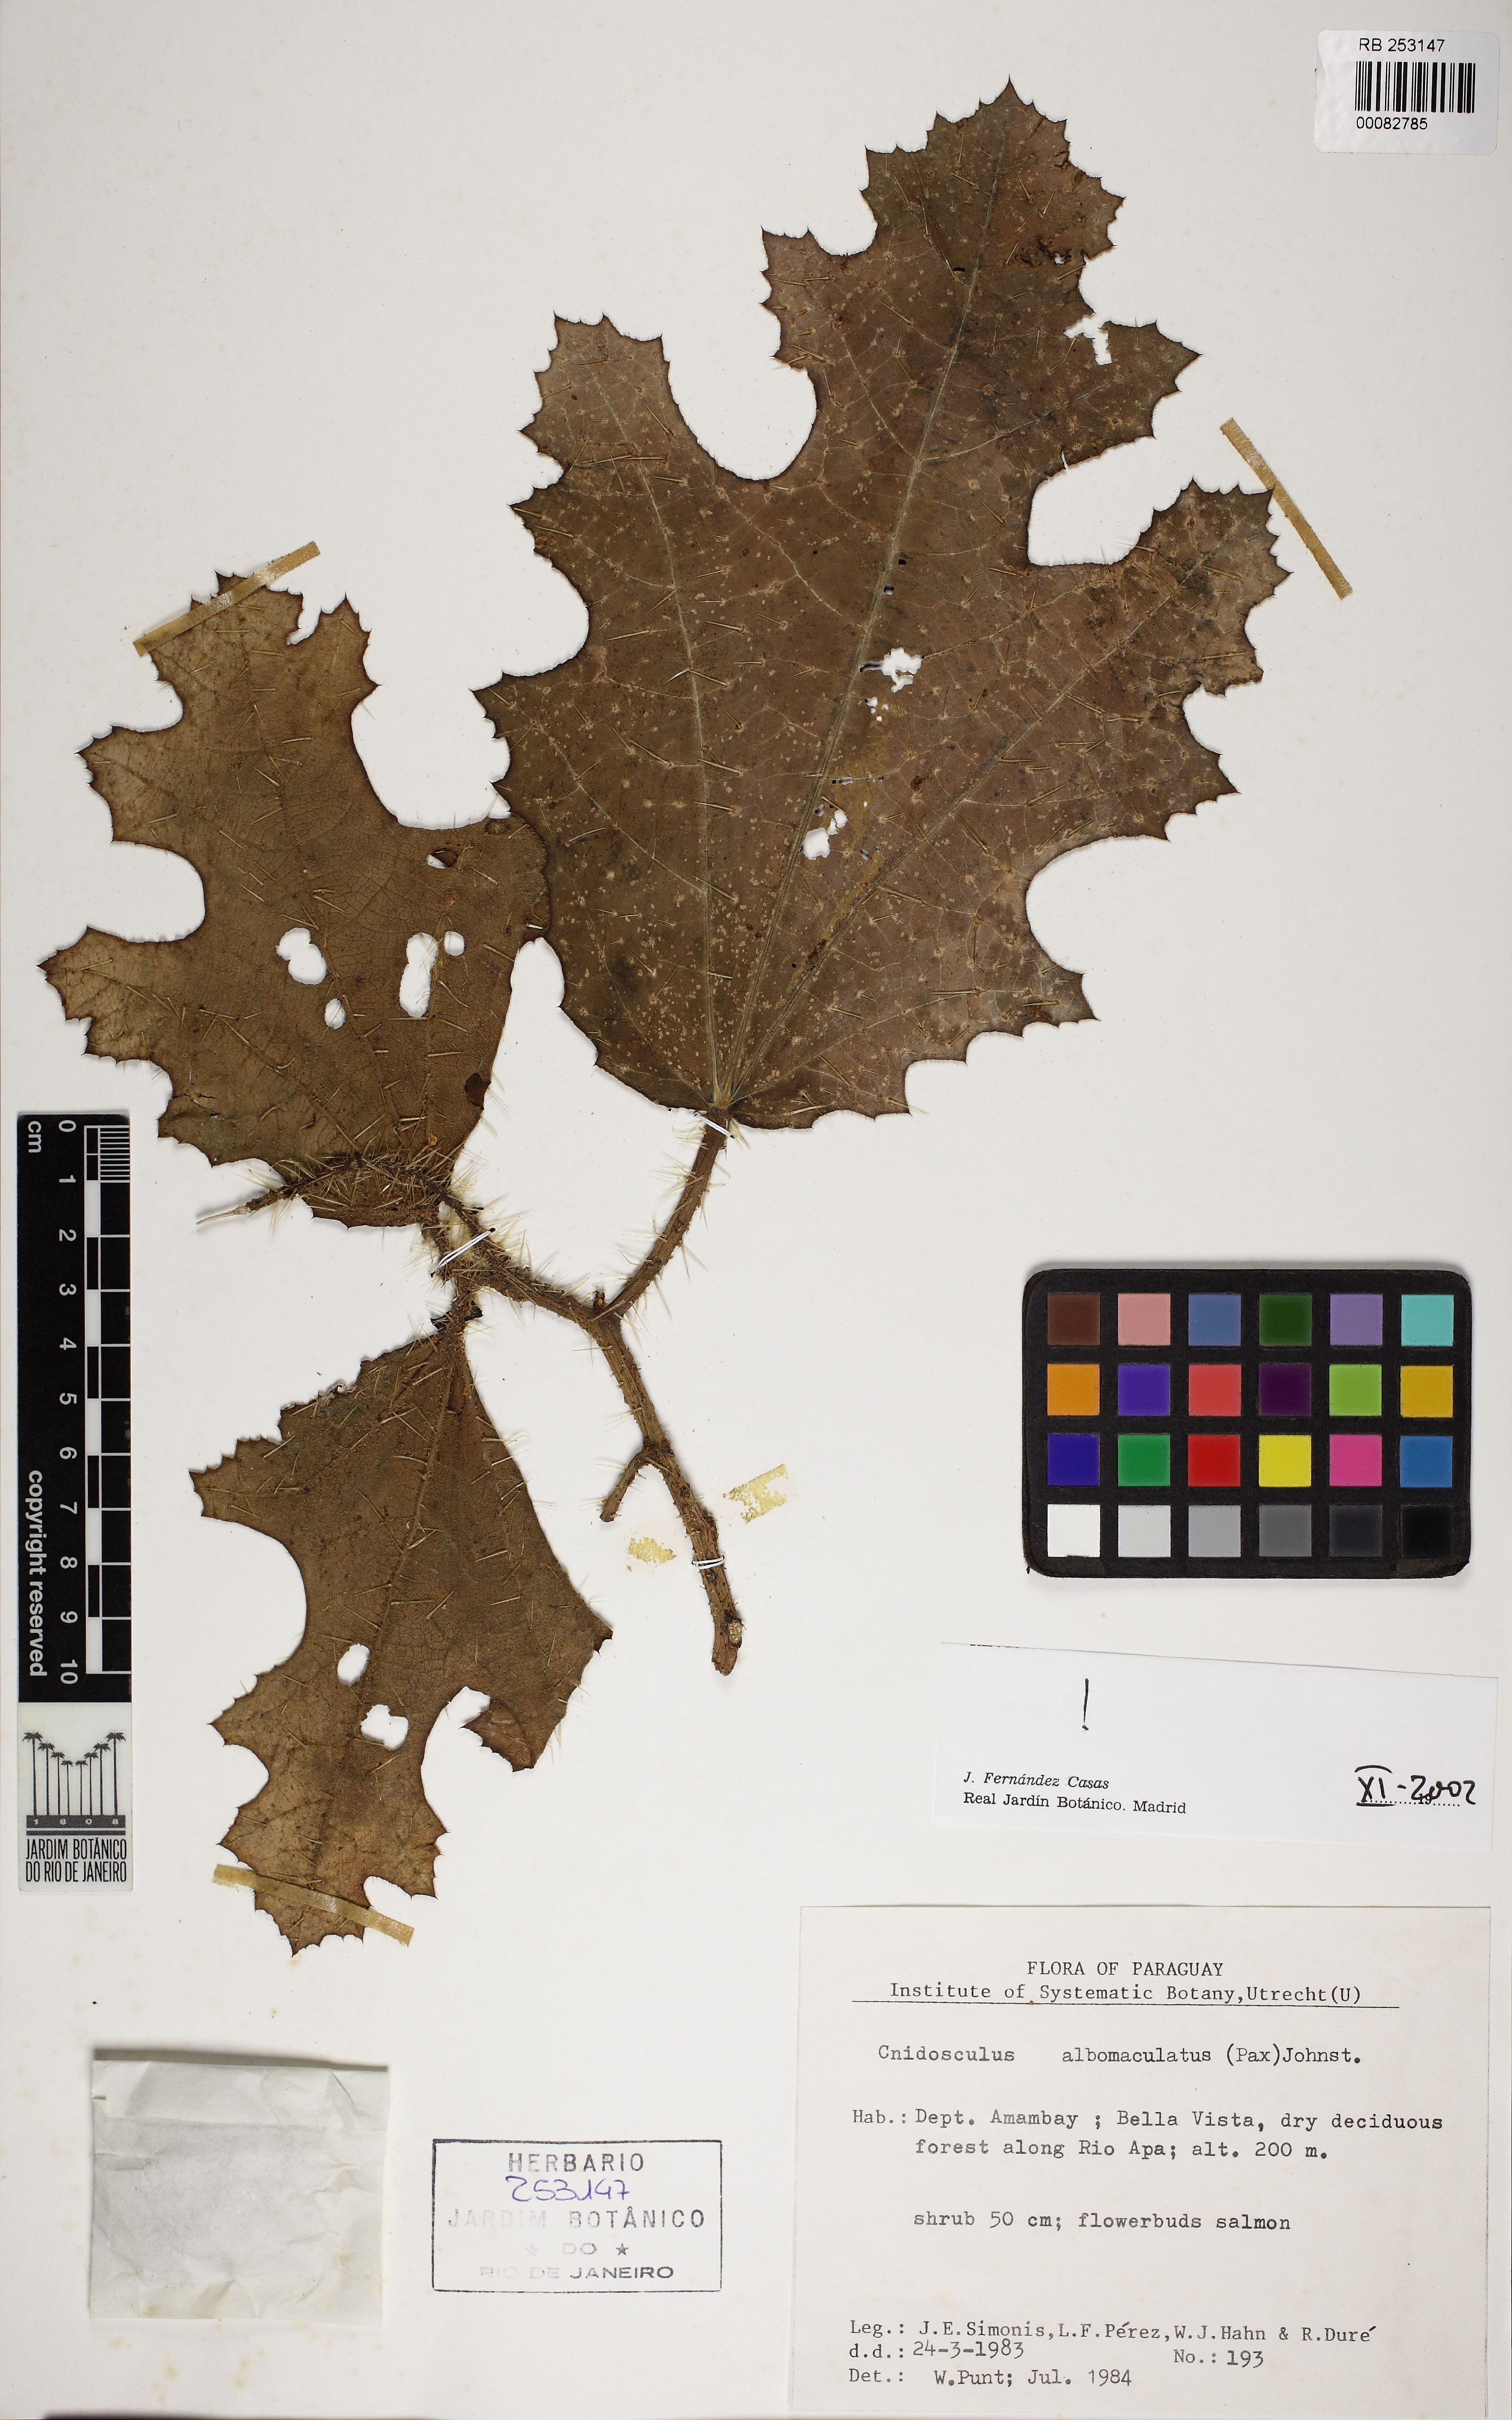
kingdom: Plantae
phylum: Tracheophyta
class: Magnoliopsida
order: Malpighiales
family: Euphorbiaceae
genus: Cnidoscolus
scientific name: Cnidoscolus albomaculatus
